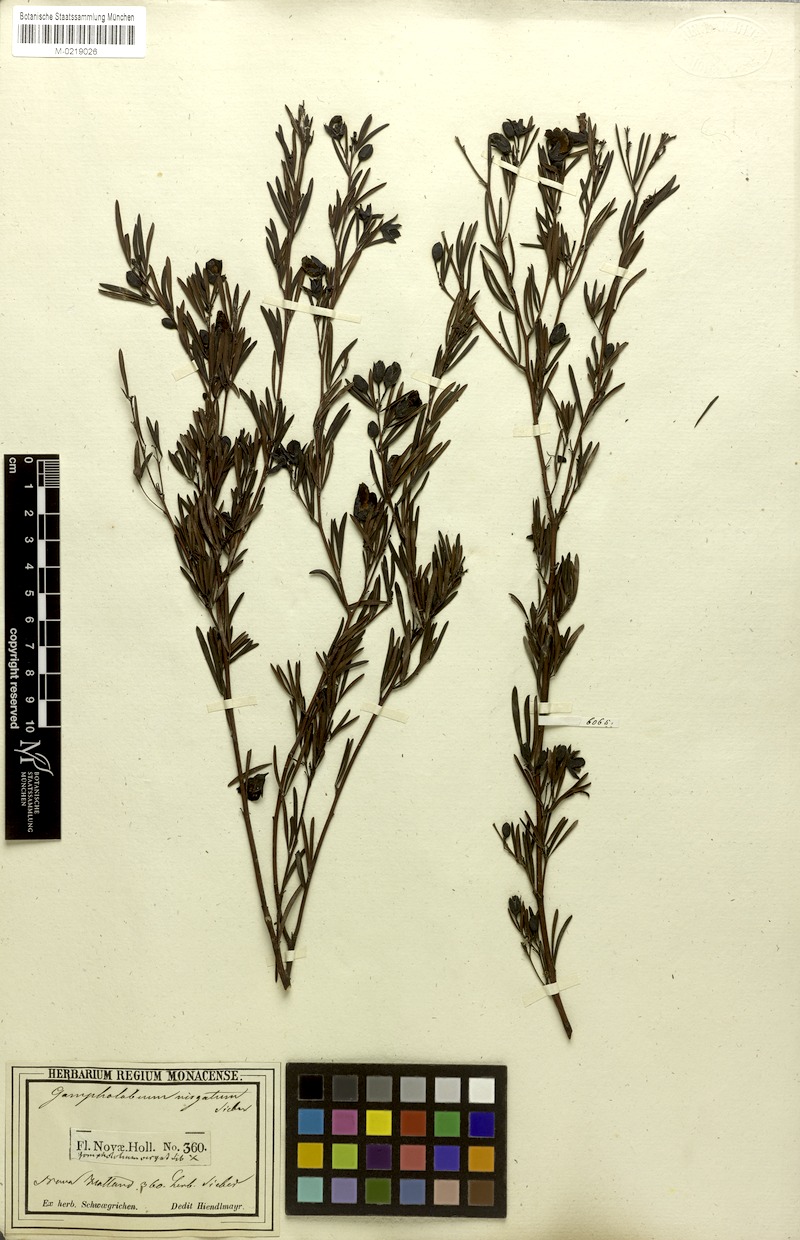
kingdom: Plantae
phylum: Tracheophyta
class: Magnoliopsida
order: Fabales
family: Fabaceae
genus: Gompholobium
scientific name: Gompholobium virgatum
